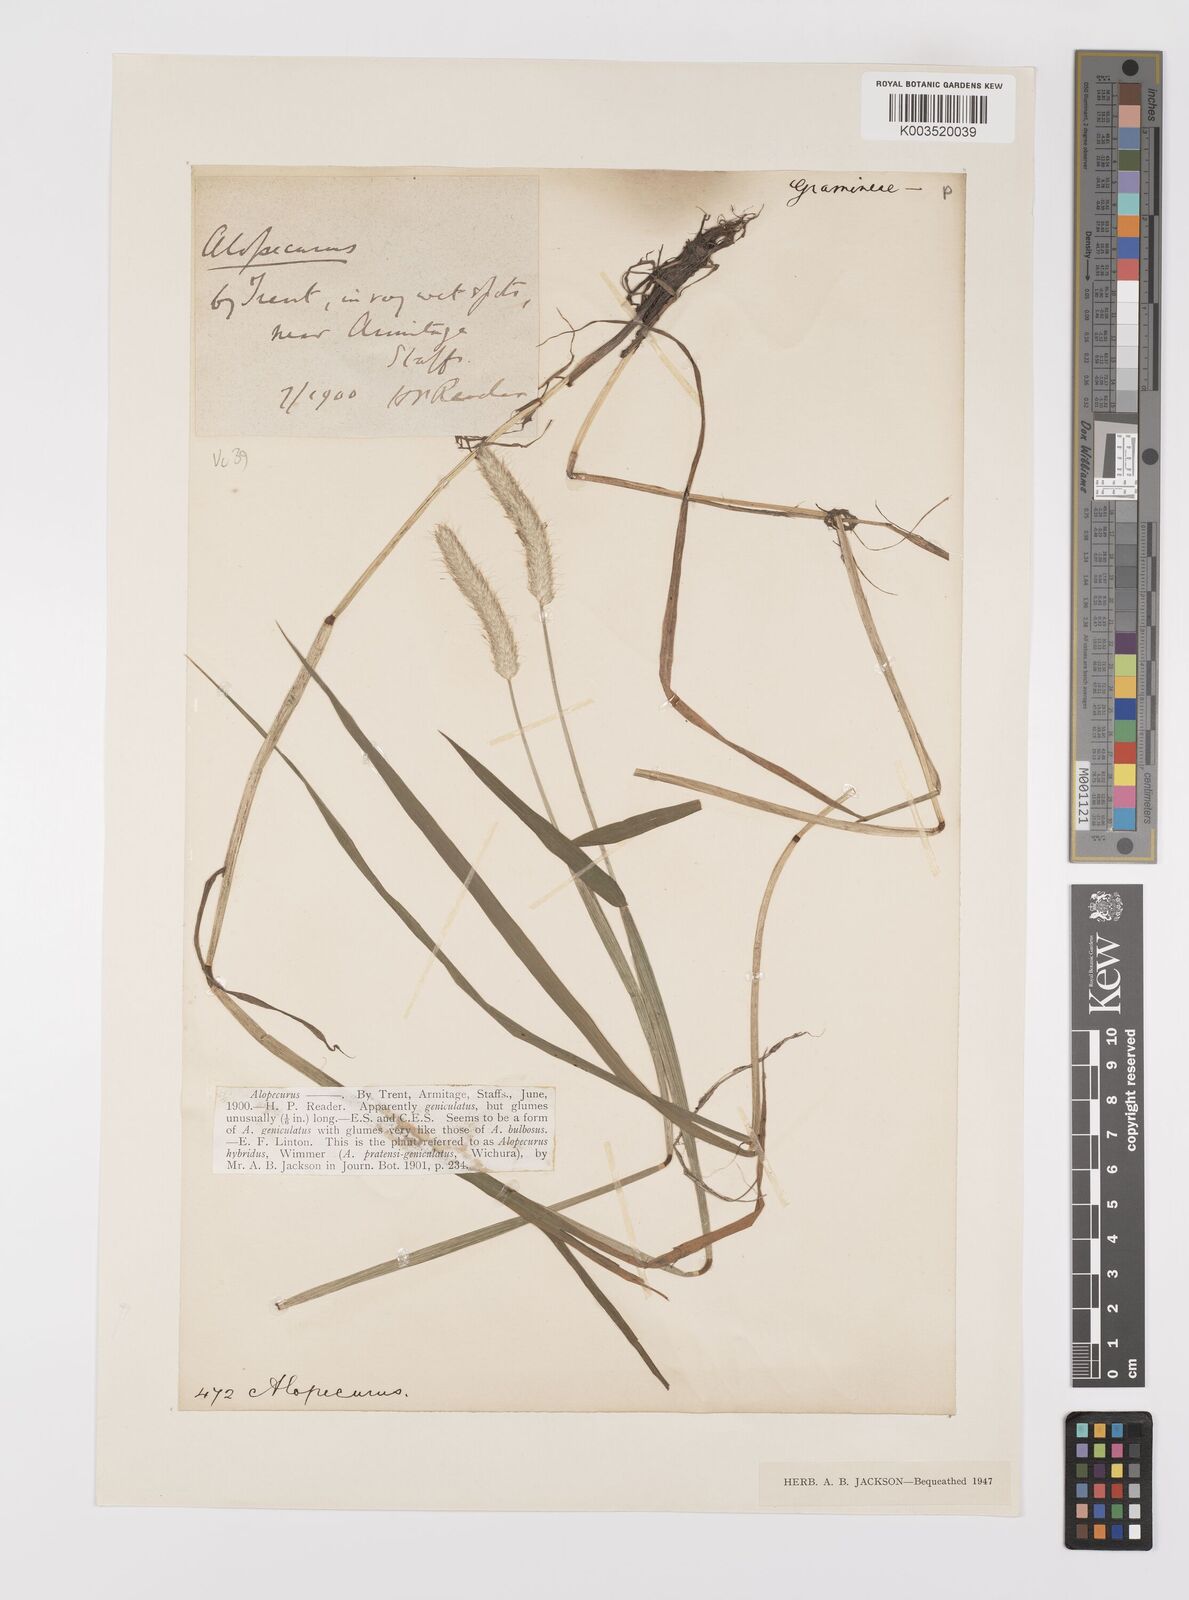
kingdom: Plantae
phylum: Tracheophyta
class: Liliopsida
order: Poales
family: Poaceae
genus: Alopecurus
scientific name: Alopecurus brachystylus
